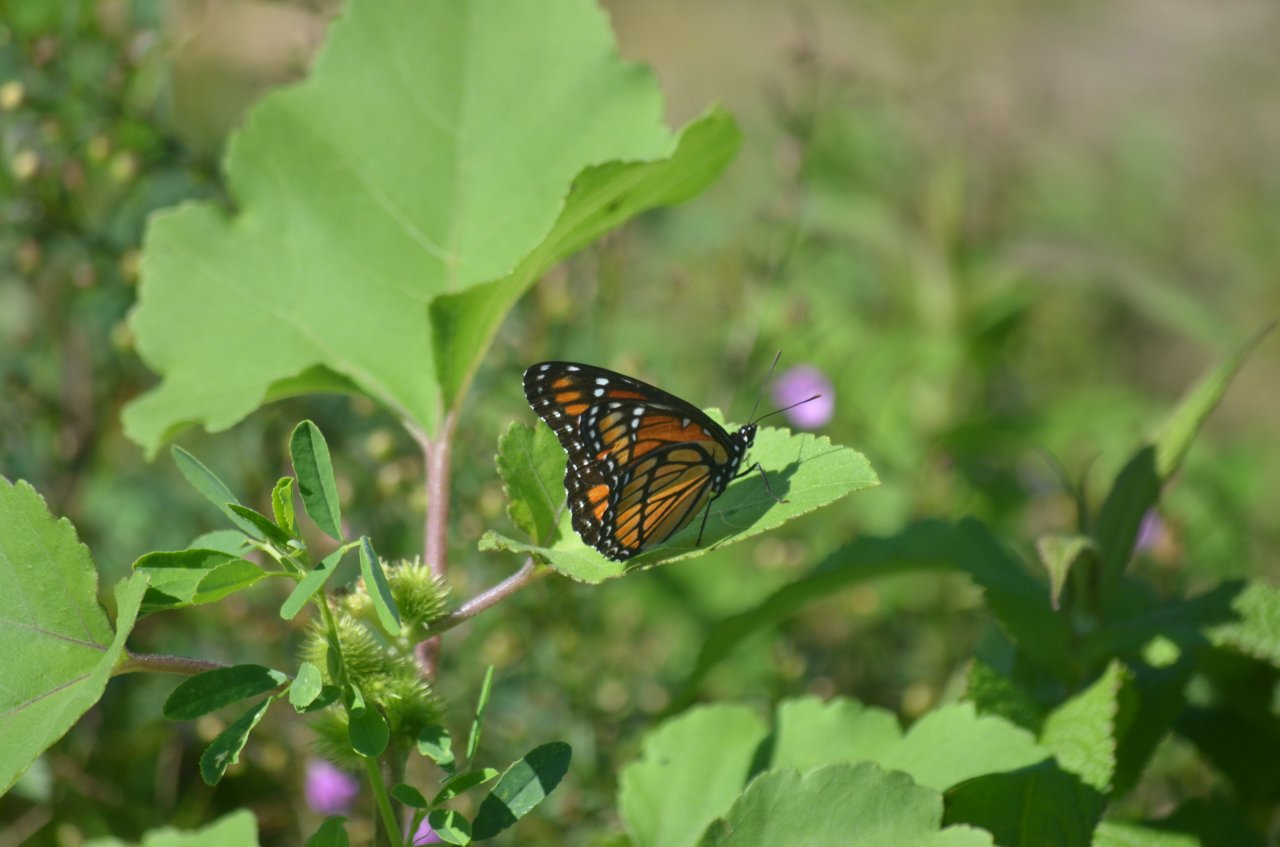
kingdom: Animalia
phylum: Arthropoda
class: Insecta
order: Lepidoptera
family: Nymphalidae
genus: Limenitis
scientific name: Limenitis archippus
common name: Viceroy
